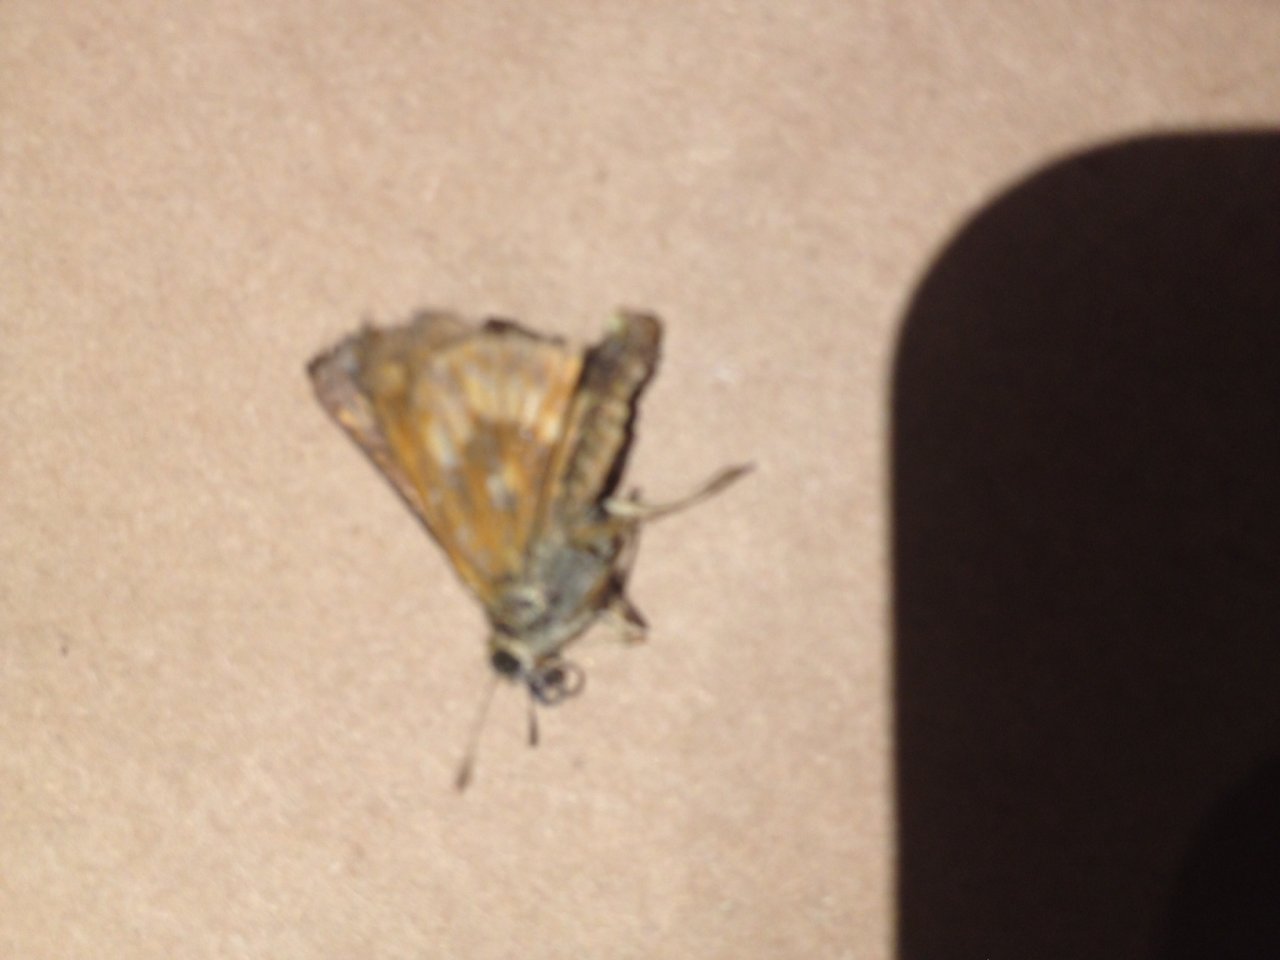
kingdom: Animalia
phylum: Arthropoda
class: Insecta
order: Lepidoptera
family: Hesperiidae
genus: Polites
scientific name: Polites
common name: Long Dash Skipper
